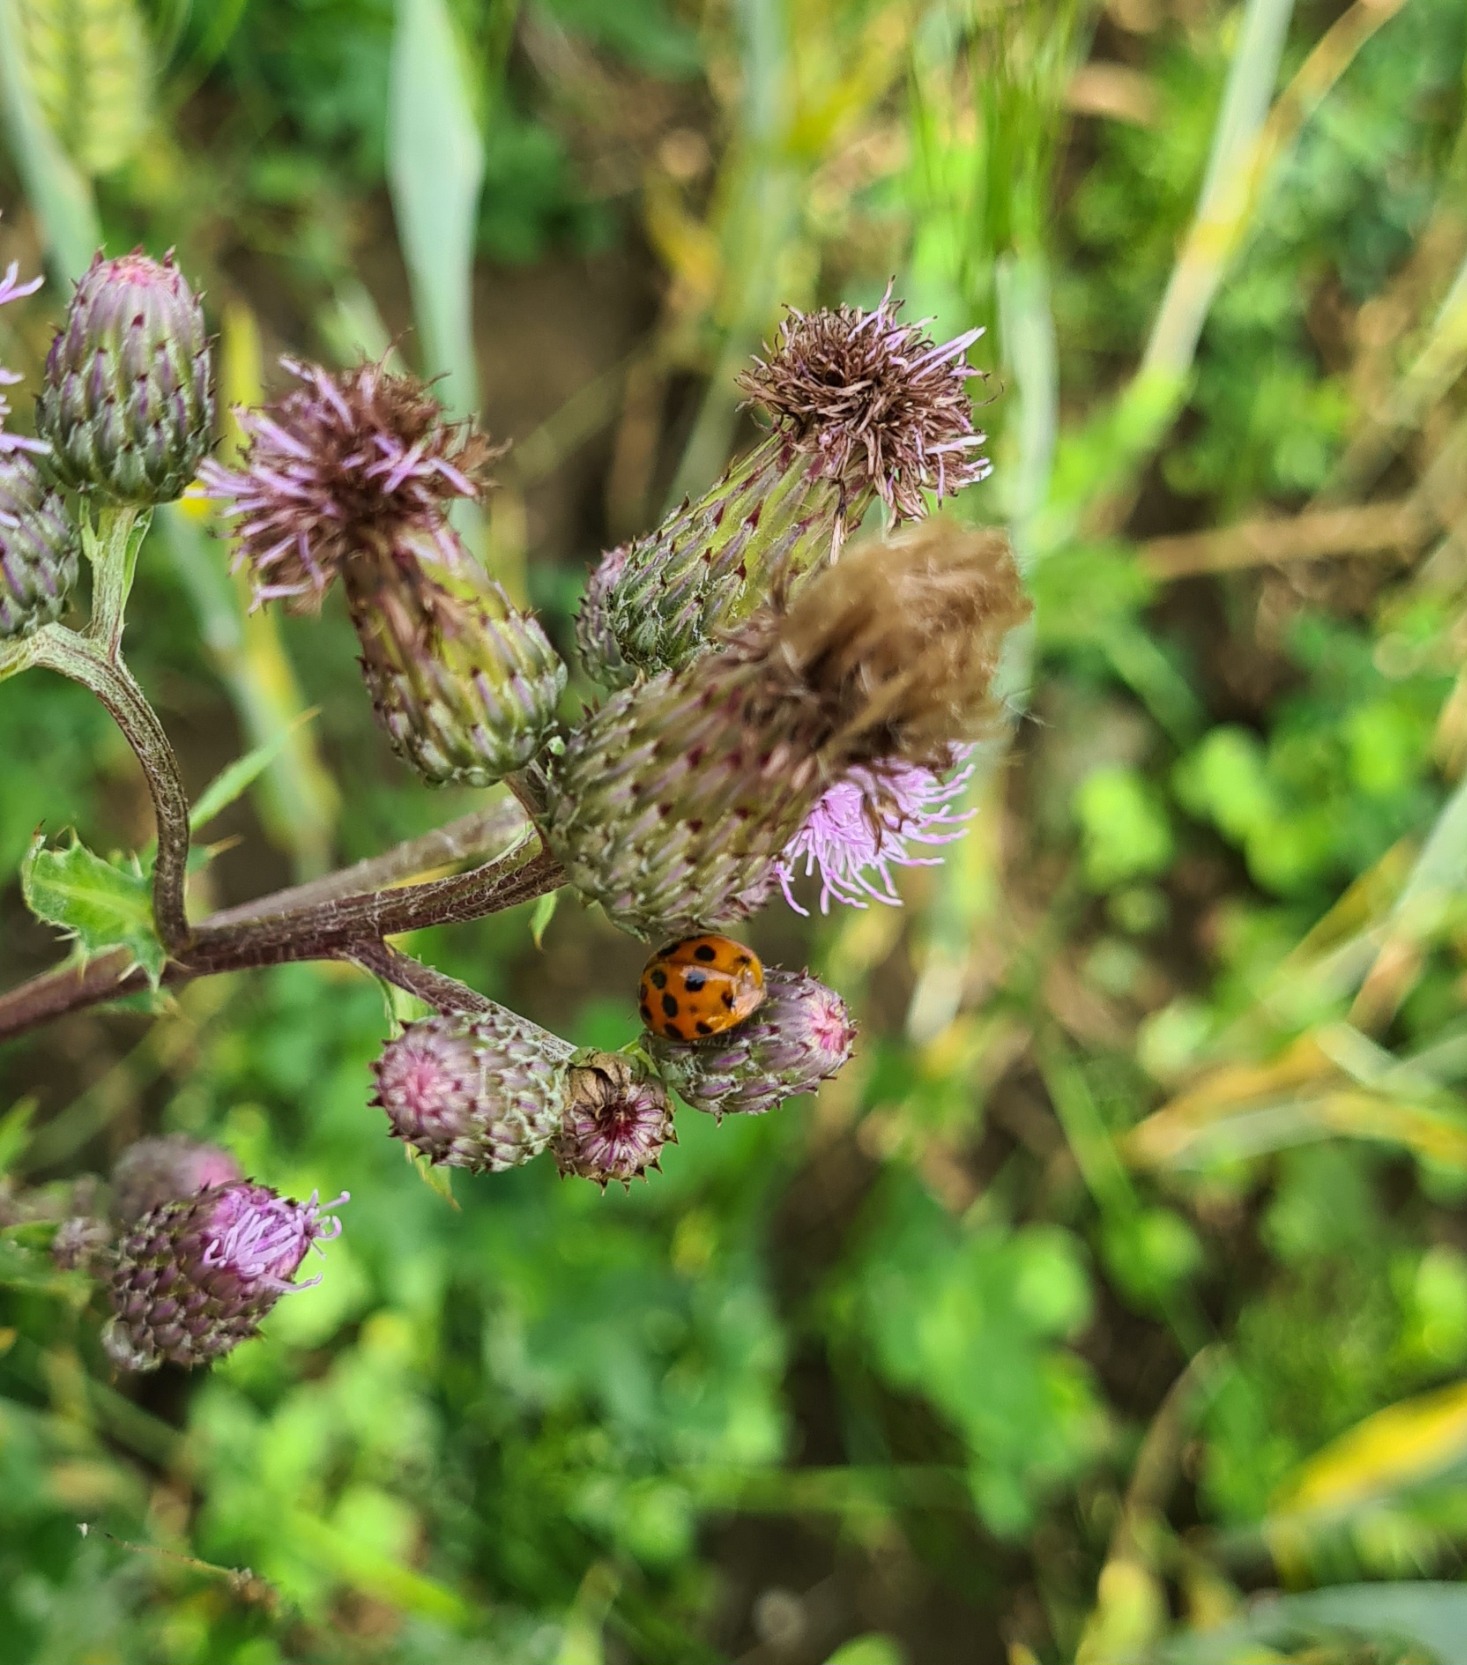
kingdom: Animalia
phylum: Arthropoda
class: Insecta
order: Coleoptera
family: Coccinellidae
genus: Harmonia
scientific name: Harmonia axyridis
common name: Harlekinmariehøne
